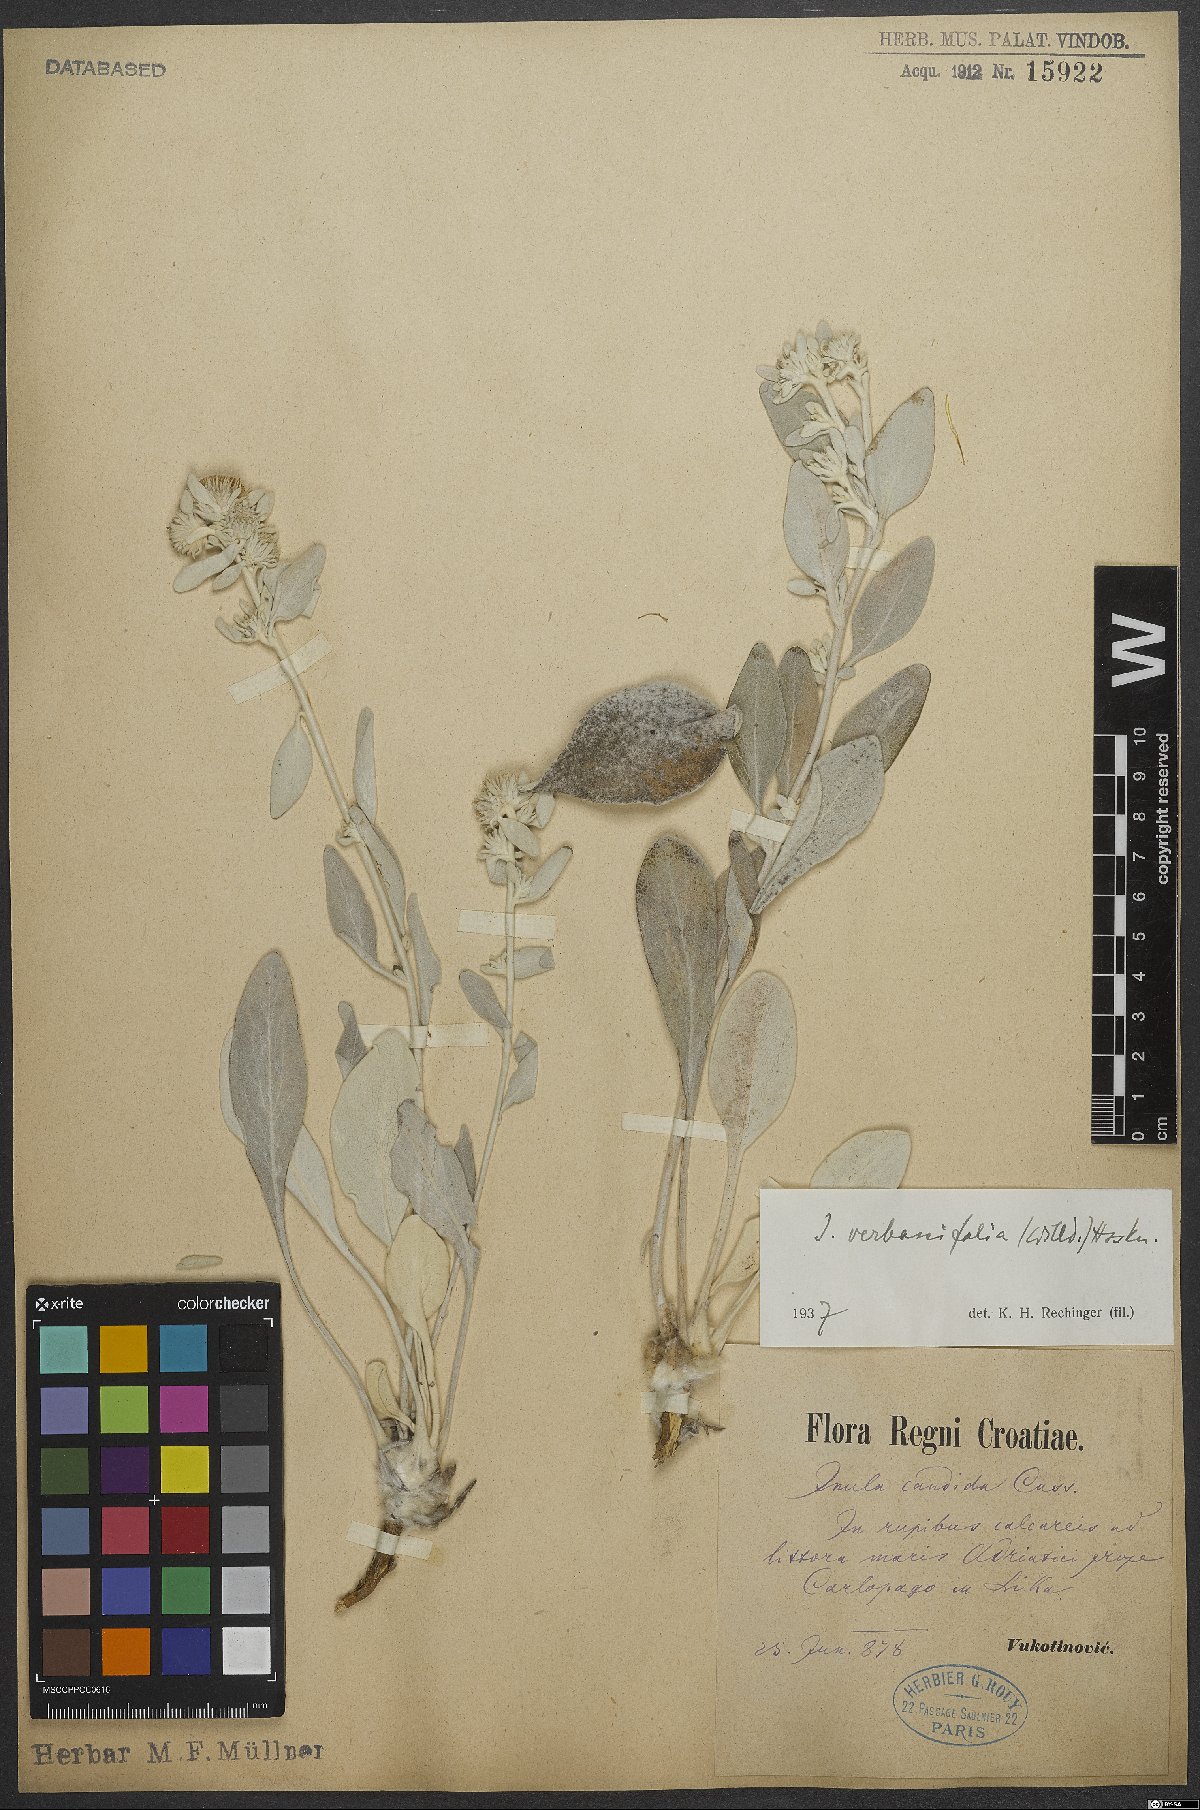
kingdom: Plantae
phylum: Tracheophyta
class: Magnoliopsida
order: Asterales
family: Asteraceae
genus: Pentanema
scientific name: Pentanema verbascifolium
